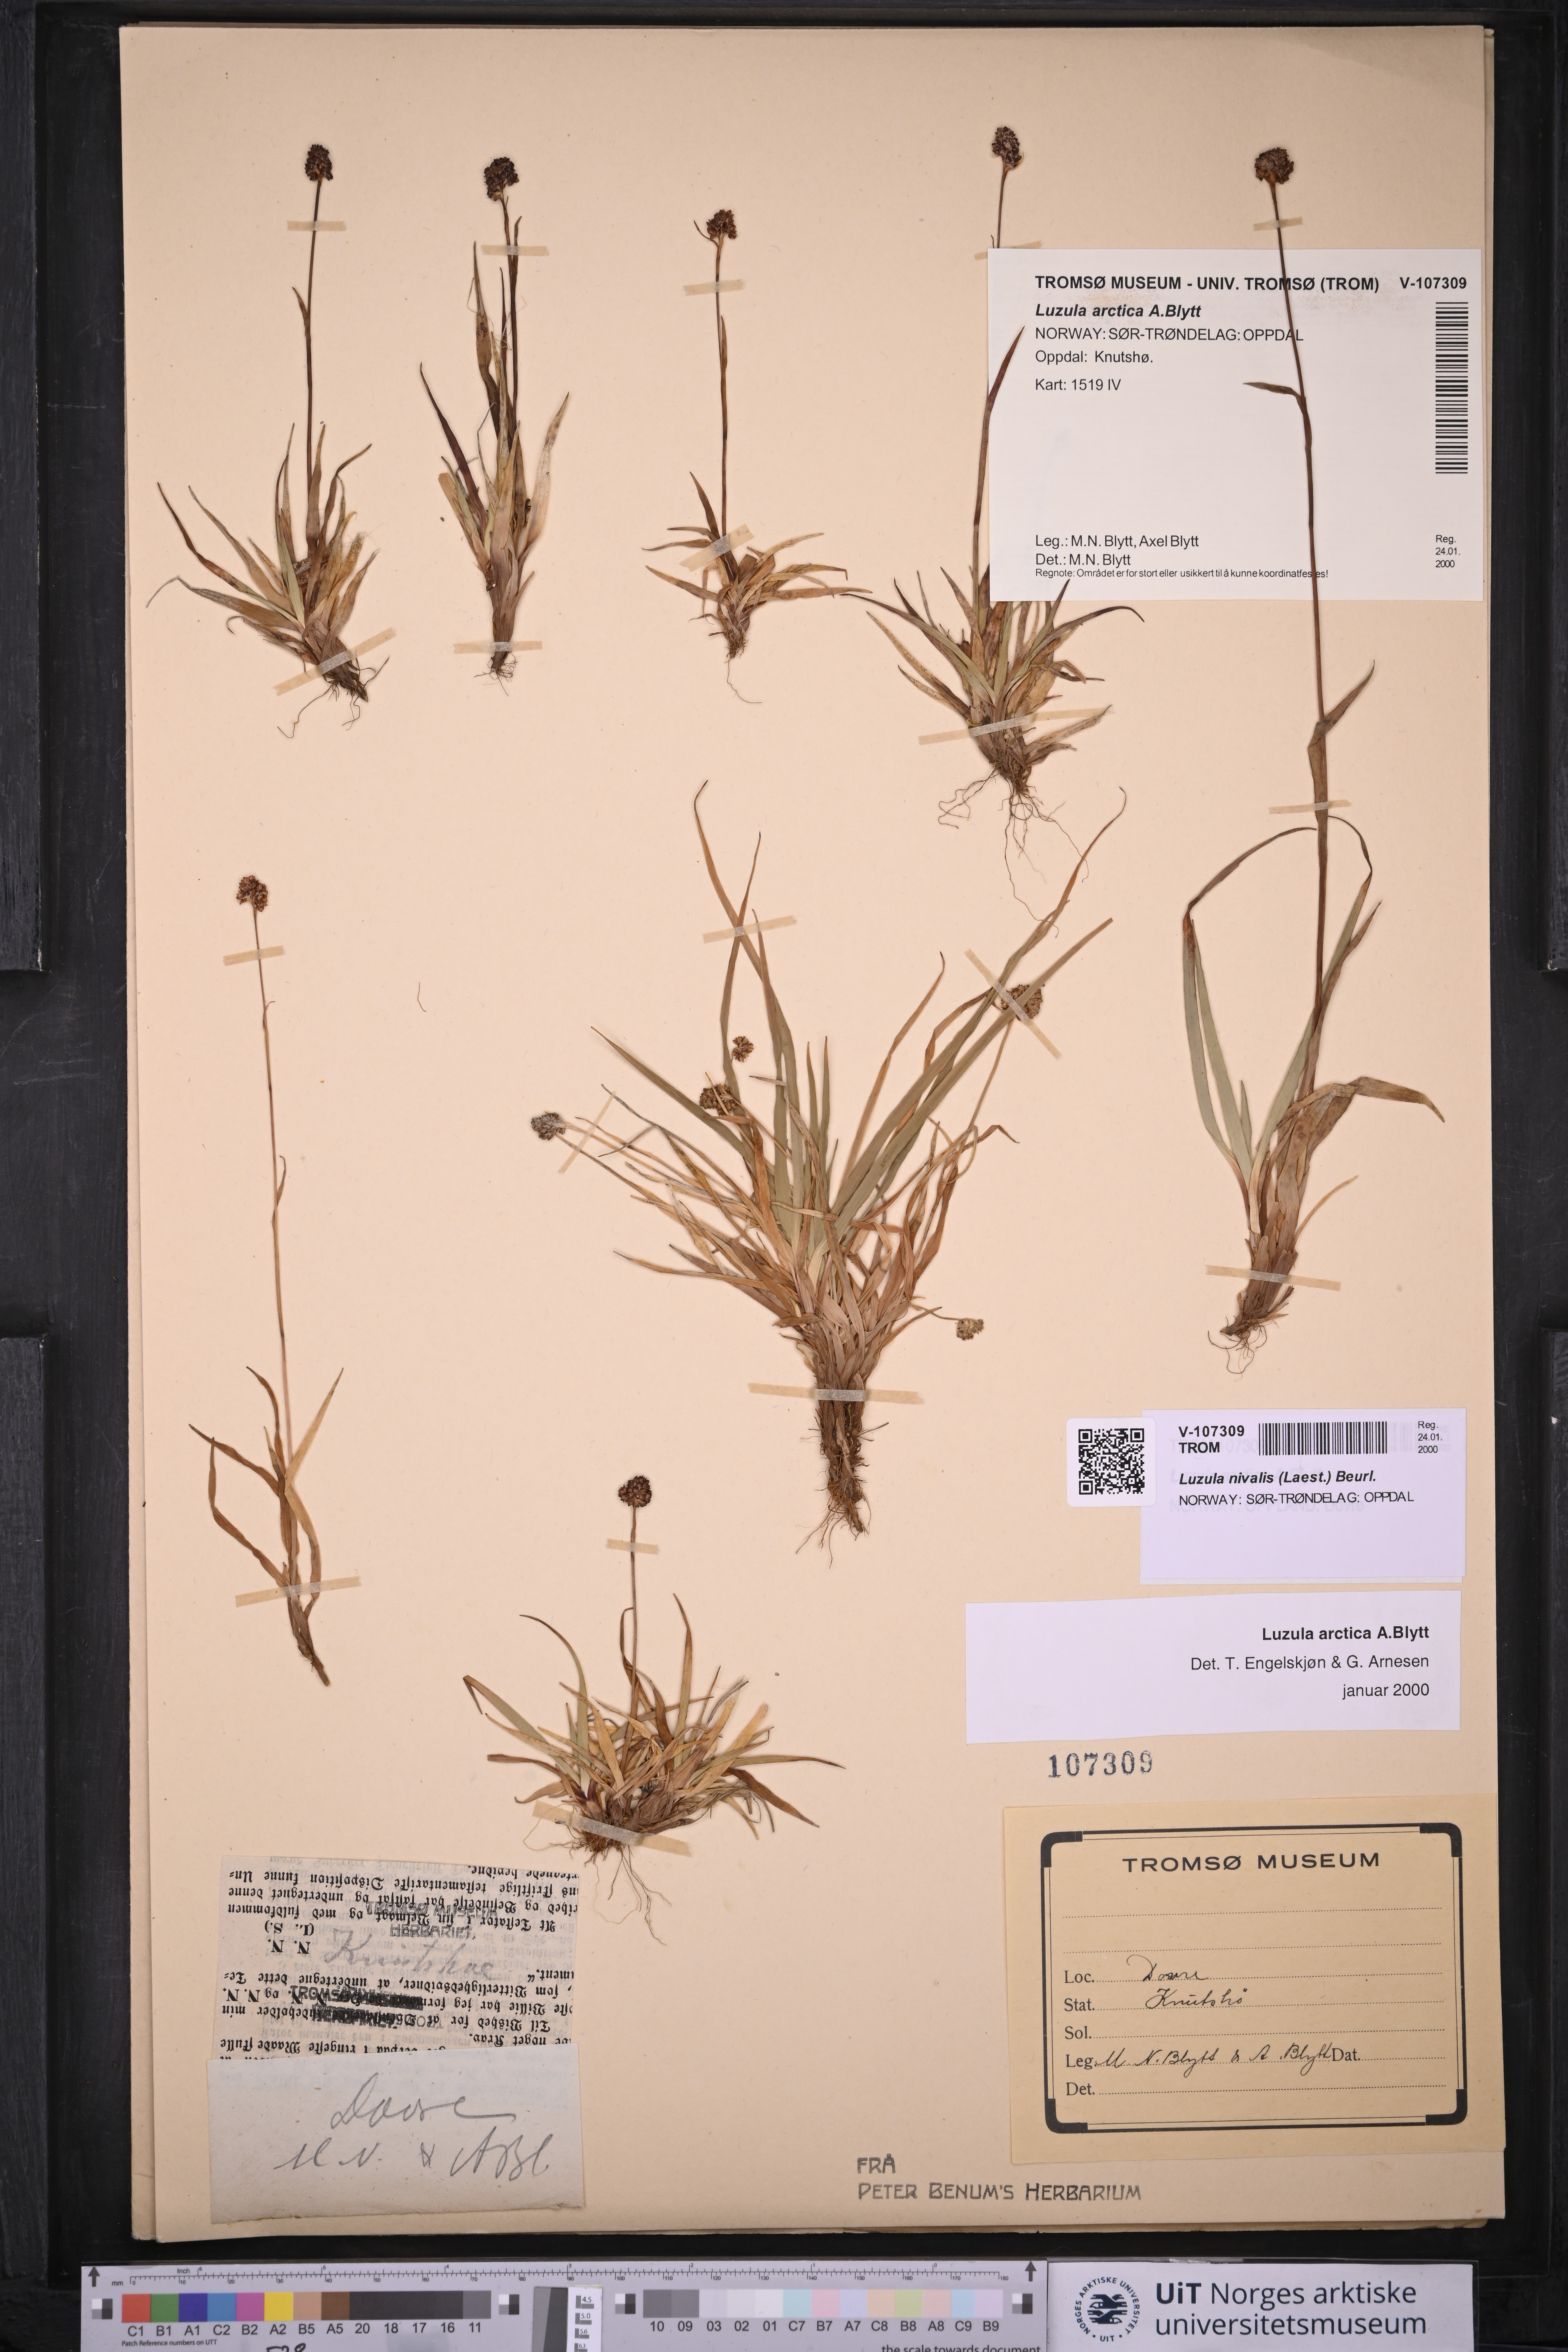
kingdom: Plantae
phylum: Tracheophyta
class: Liliopsida
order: Poales
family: Juncaceae
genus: Luzula
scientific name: Luzula nivalis
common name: Arctic woodrush
